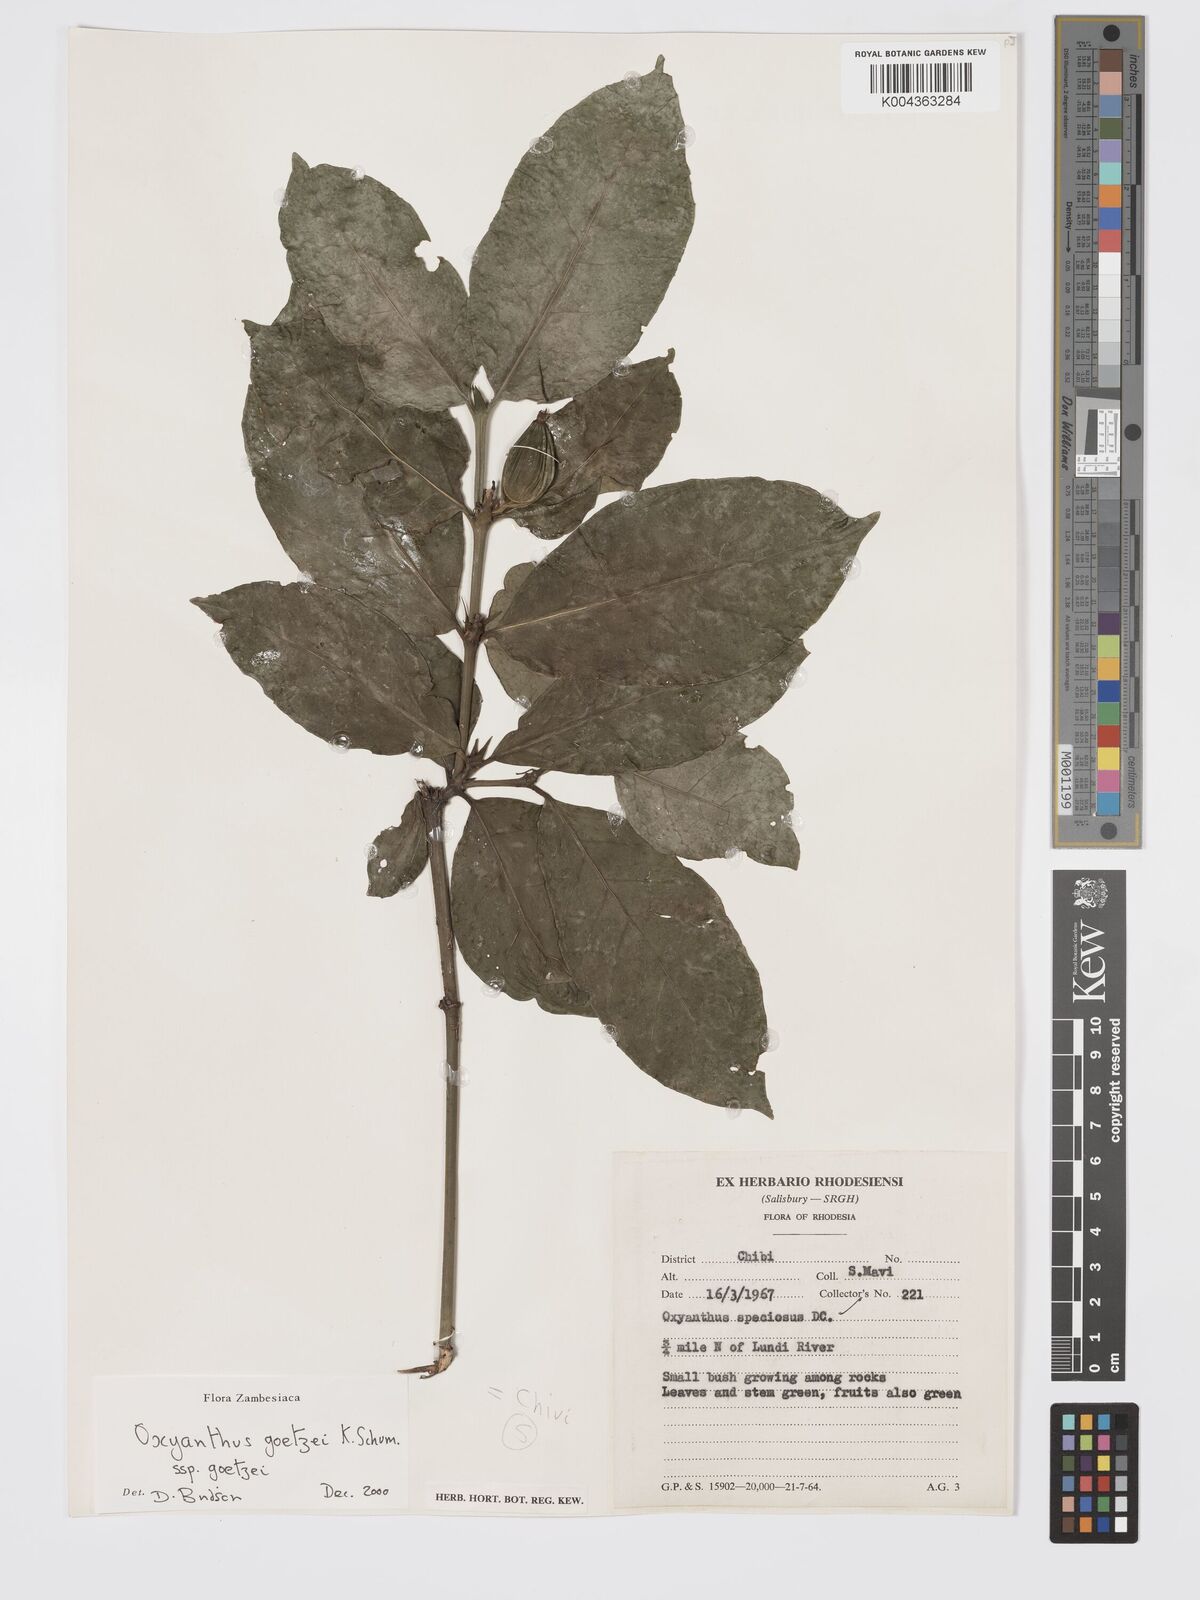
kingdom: Plantae
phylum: Tracheophyta
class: Magnoliopsida
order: Gentianales
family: Rubiaceae
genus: Oxyanthus
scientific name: Oxyanthus goetzei
